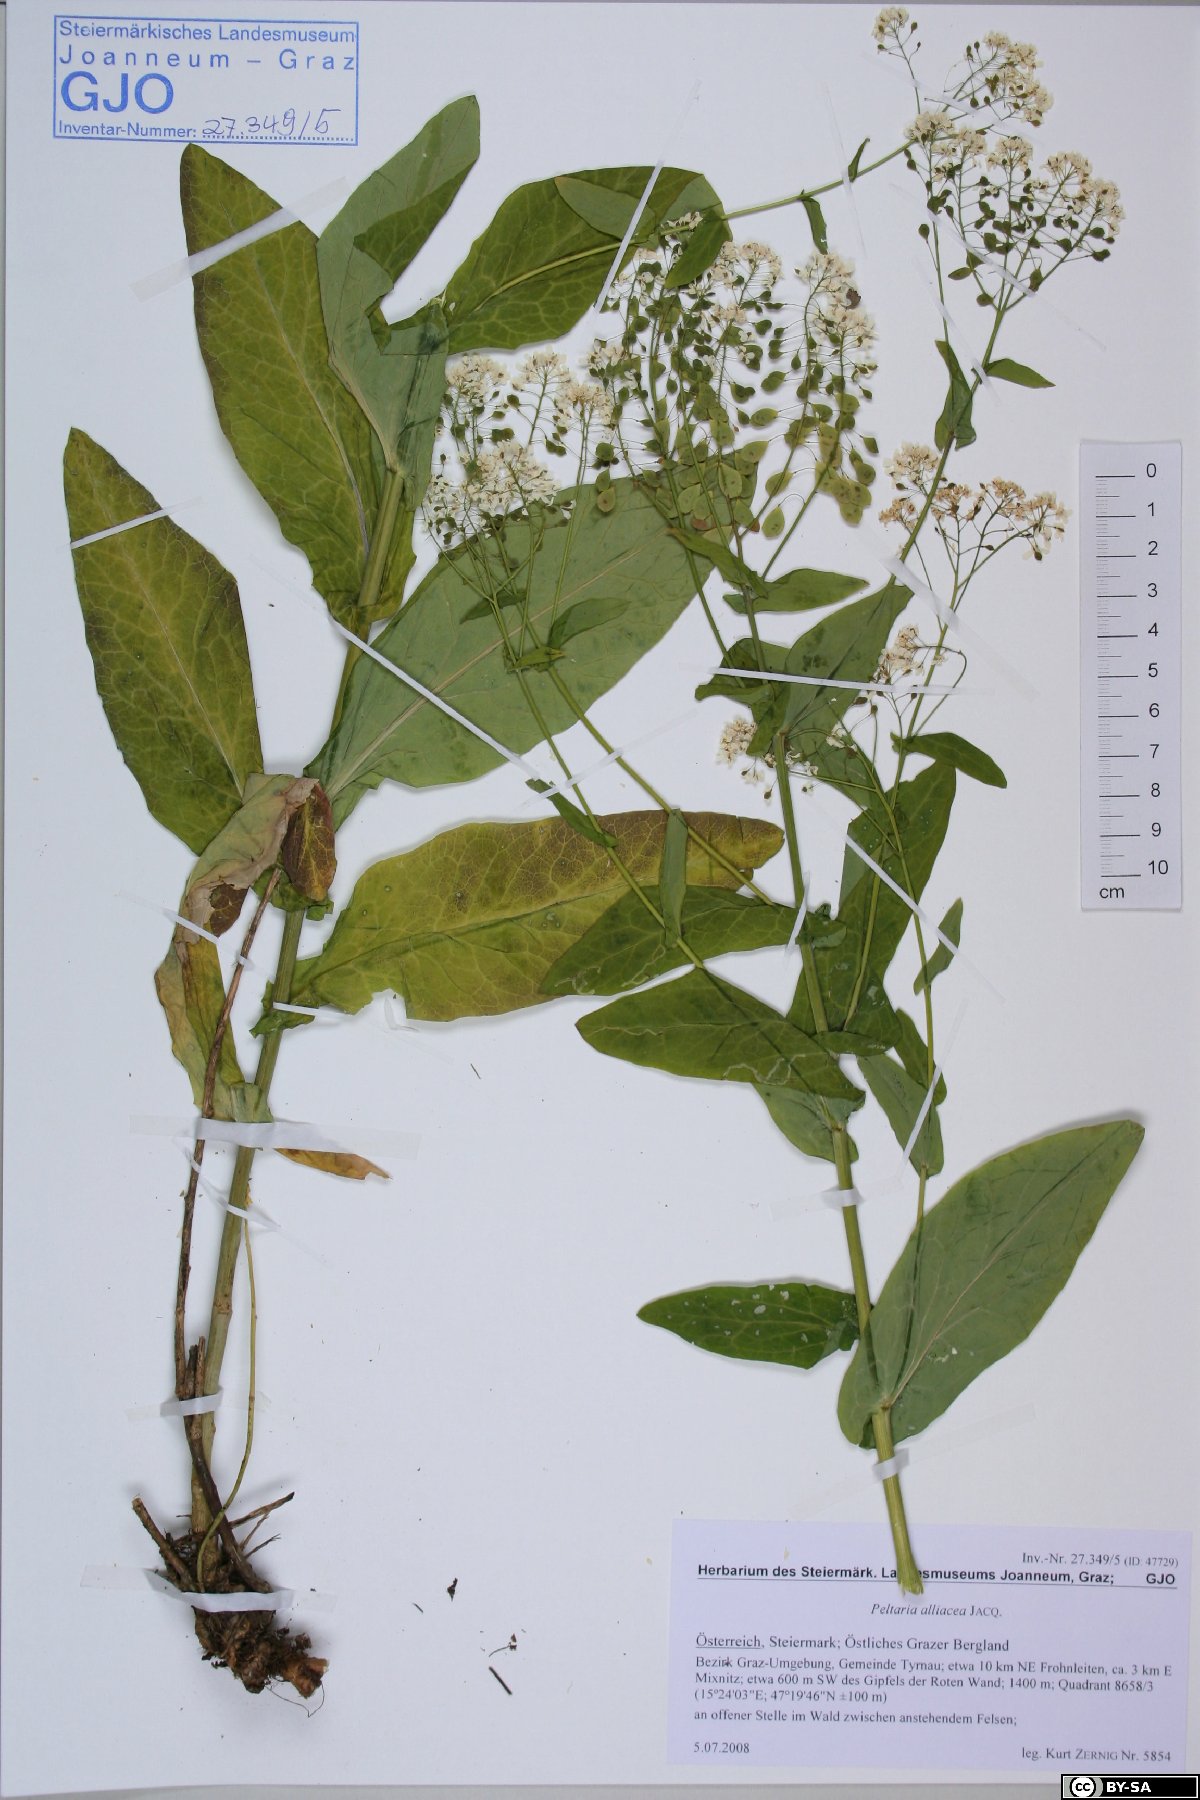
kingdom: Plantae
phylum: Tracheophyta
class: Magnoliopsida
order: Brassicales
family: Brassicaceae
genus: Peltaria
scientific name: Peltaria alliacea
